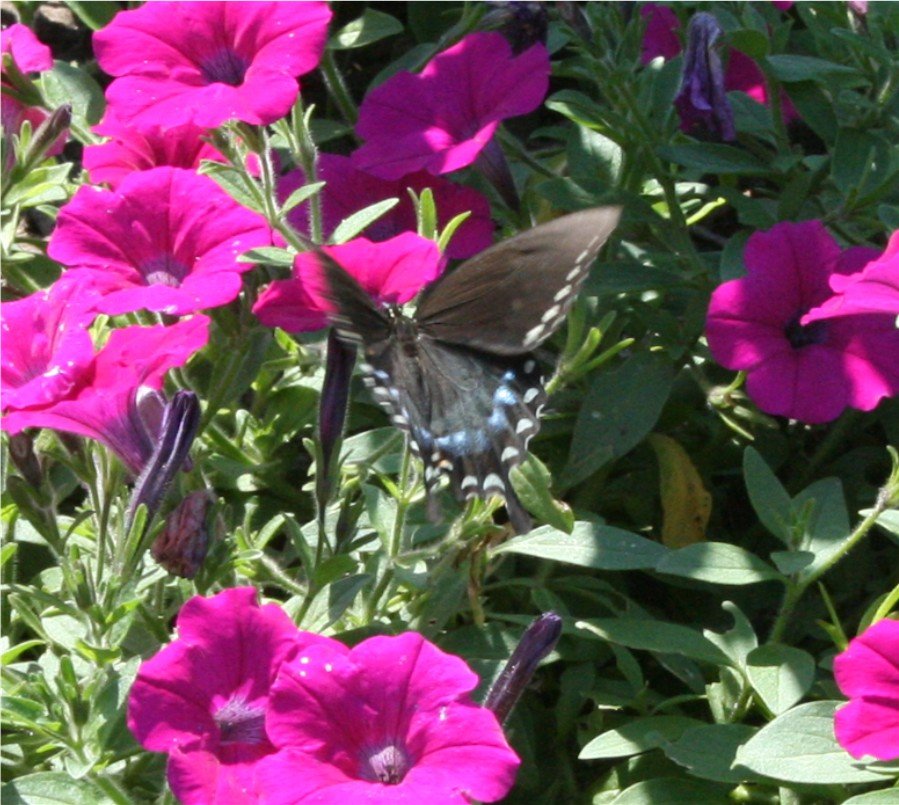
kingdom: Animalia
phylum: Arthropoda
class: Insecta
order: Lepidoptera
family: Papilionidae
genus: Pterourus
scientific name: Pterourus troilus
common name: Spicebush Swallowtail
